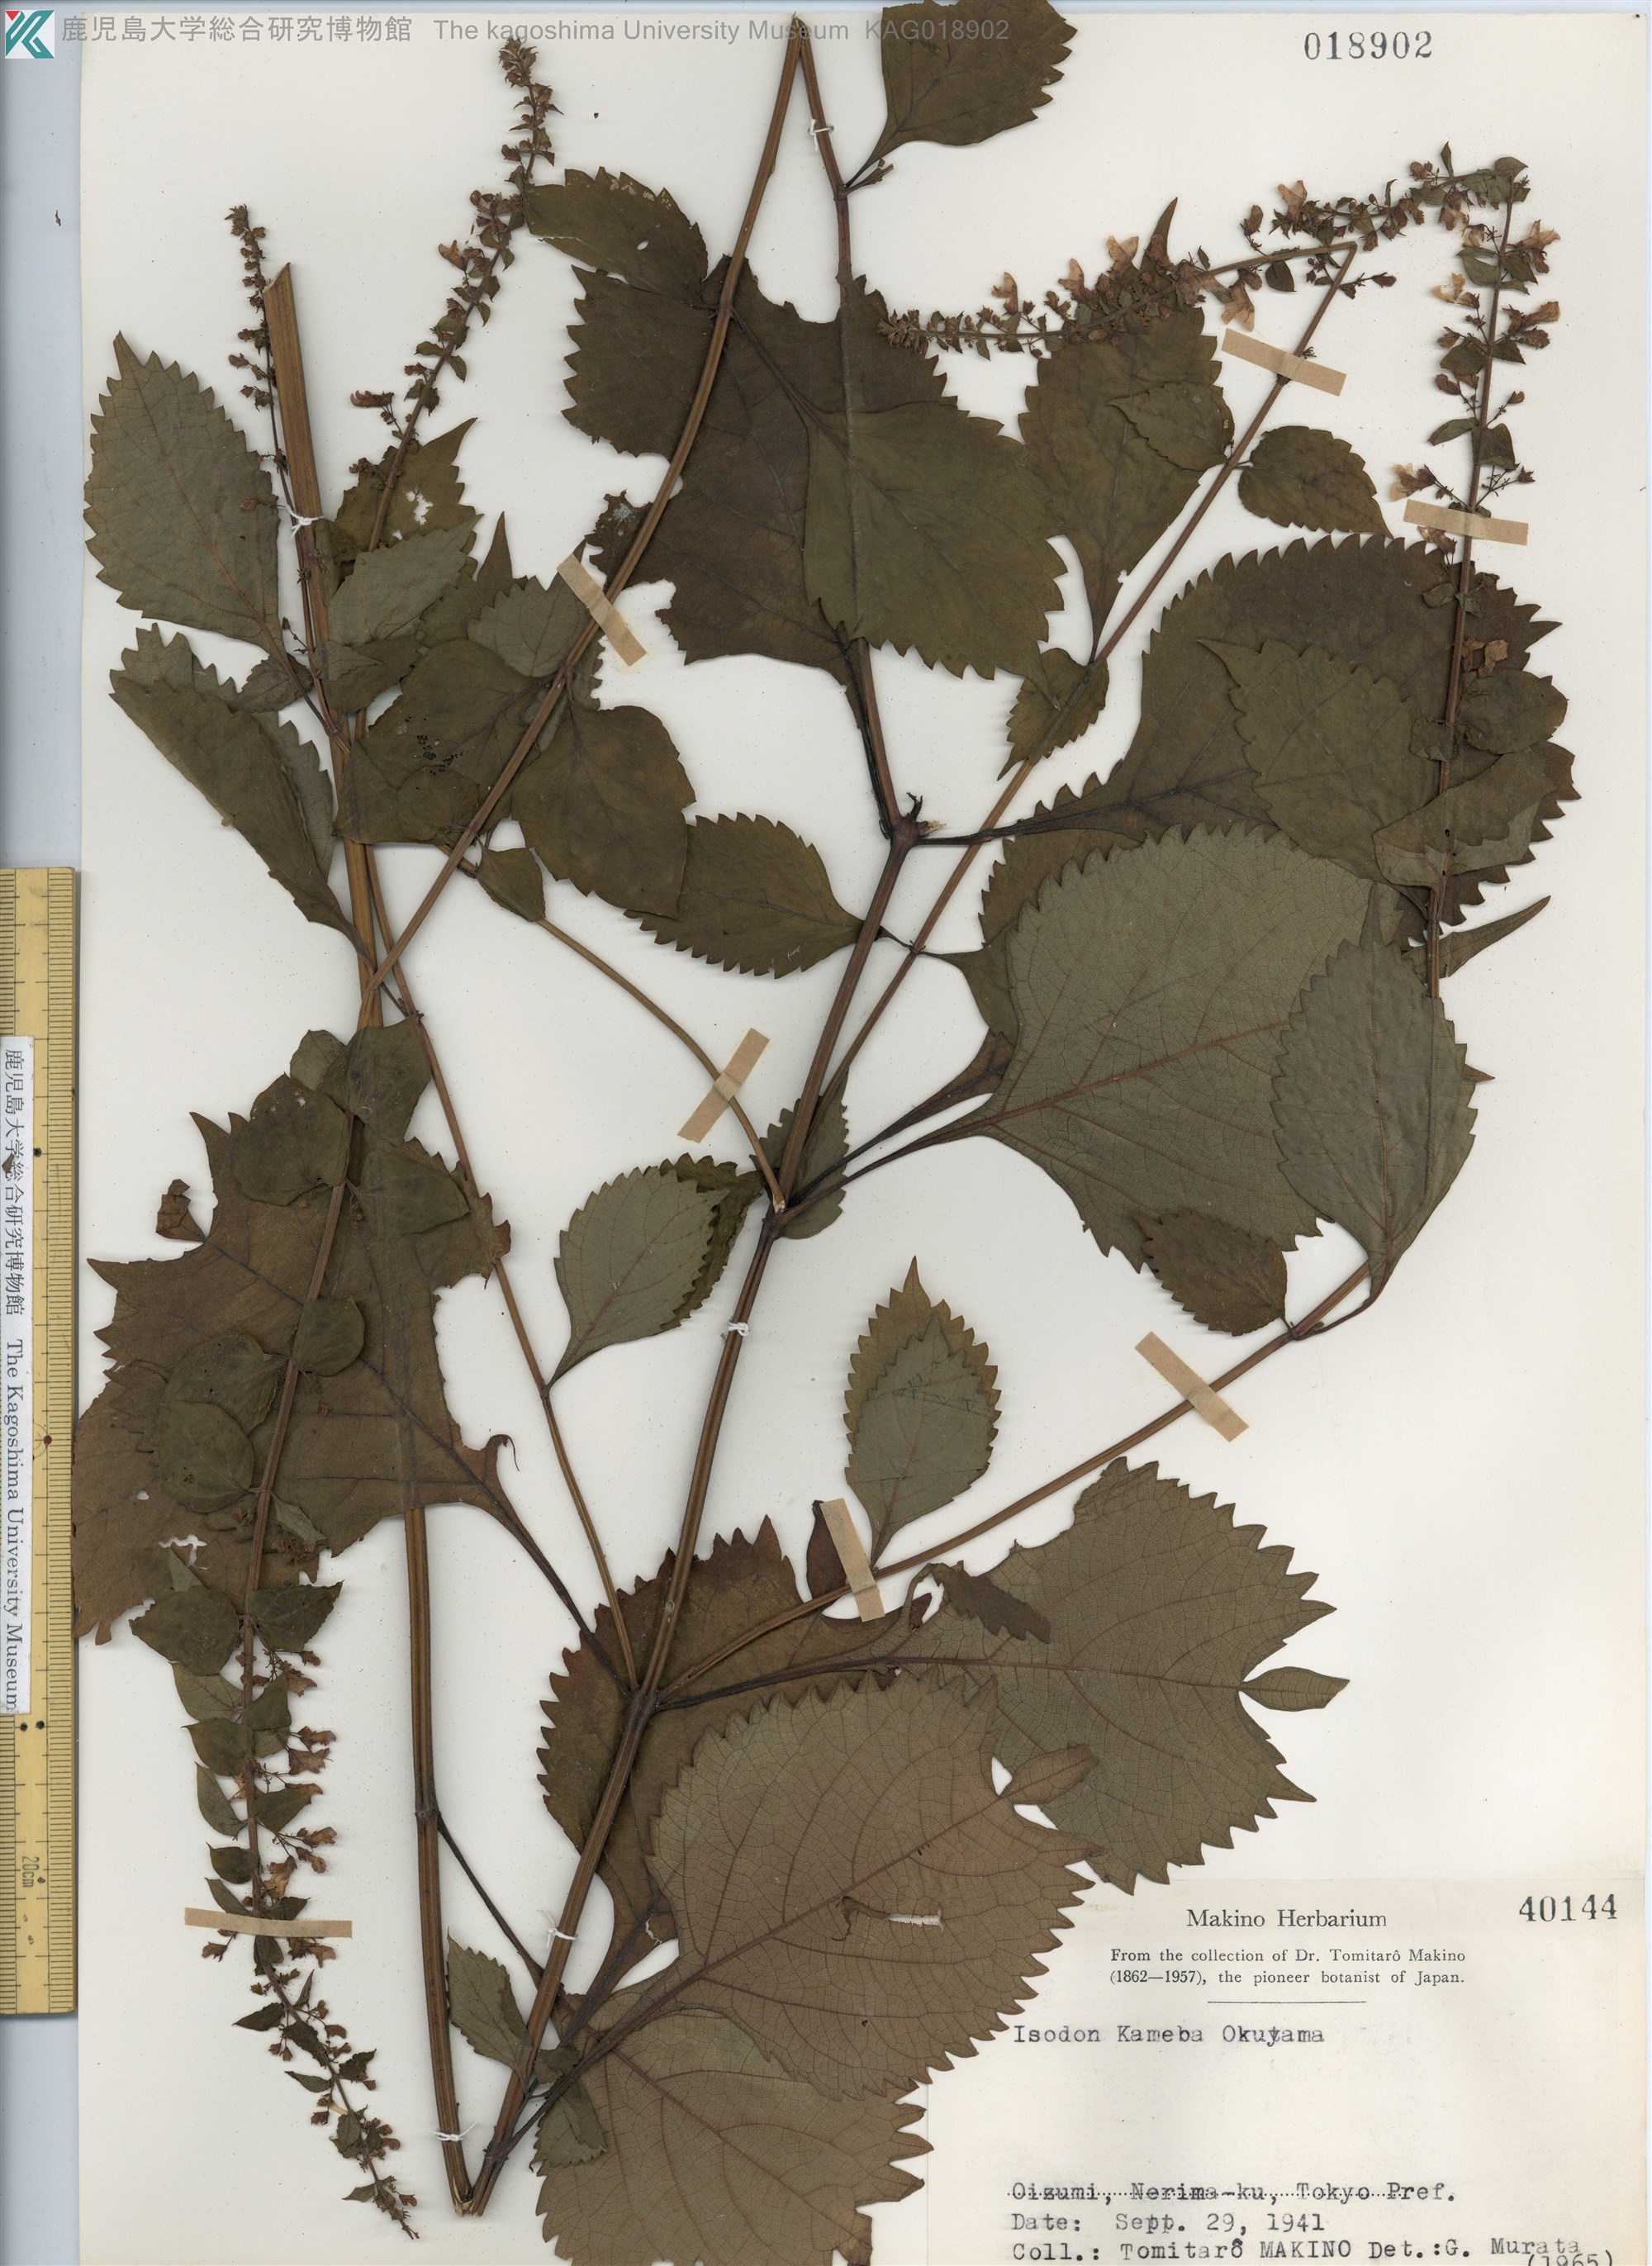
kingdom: Plantae
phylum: Tracheophyta
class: Magnoliopsida
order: Lamiales
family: Lamiaceae
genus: Isodon
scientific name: Isodon umbrosus
